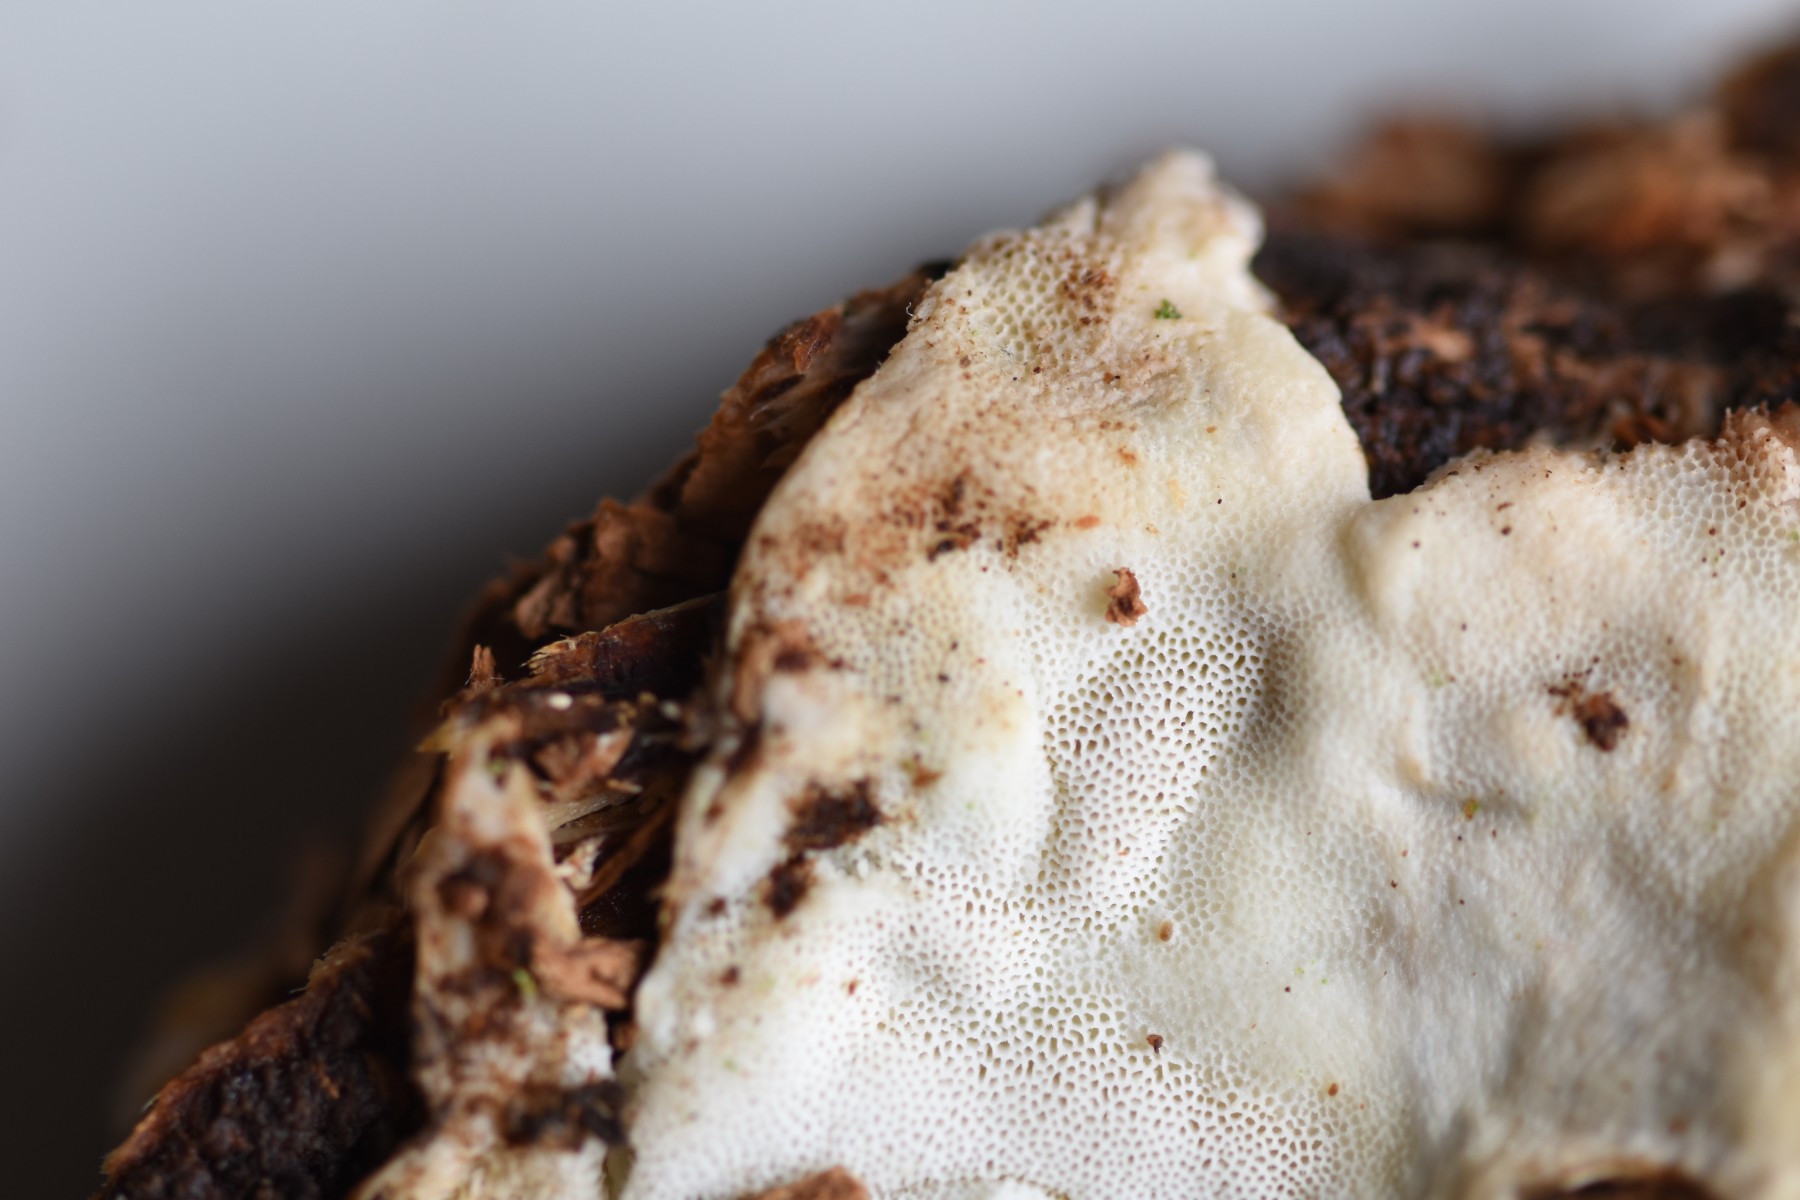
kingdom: Fungi
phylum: Basidiomycota
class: Agaricomycetes
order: Polyporales
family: Dacryobolaceae
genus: Oligoporus
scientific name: Oligoporus wakefieldiae
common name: række-kødporesvamp
